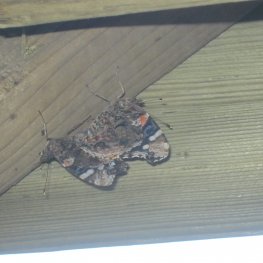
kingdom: Animalia
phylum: Arthropoda
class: Insecta
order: Lepidoptera
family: Nymphalidae
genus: Vanessa
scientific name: Vanessa atalanta
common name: Red Admiral
